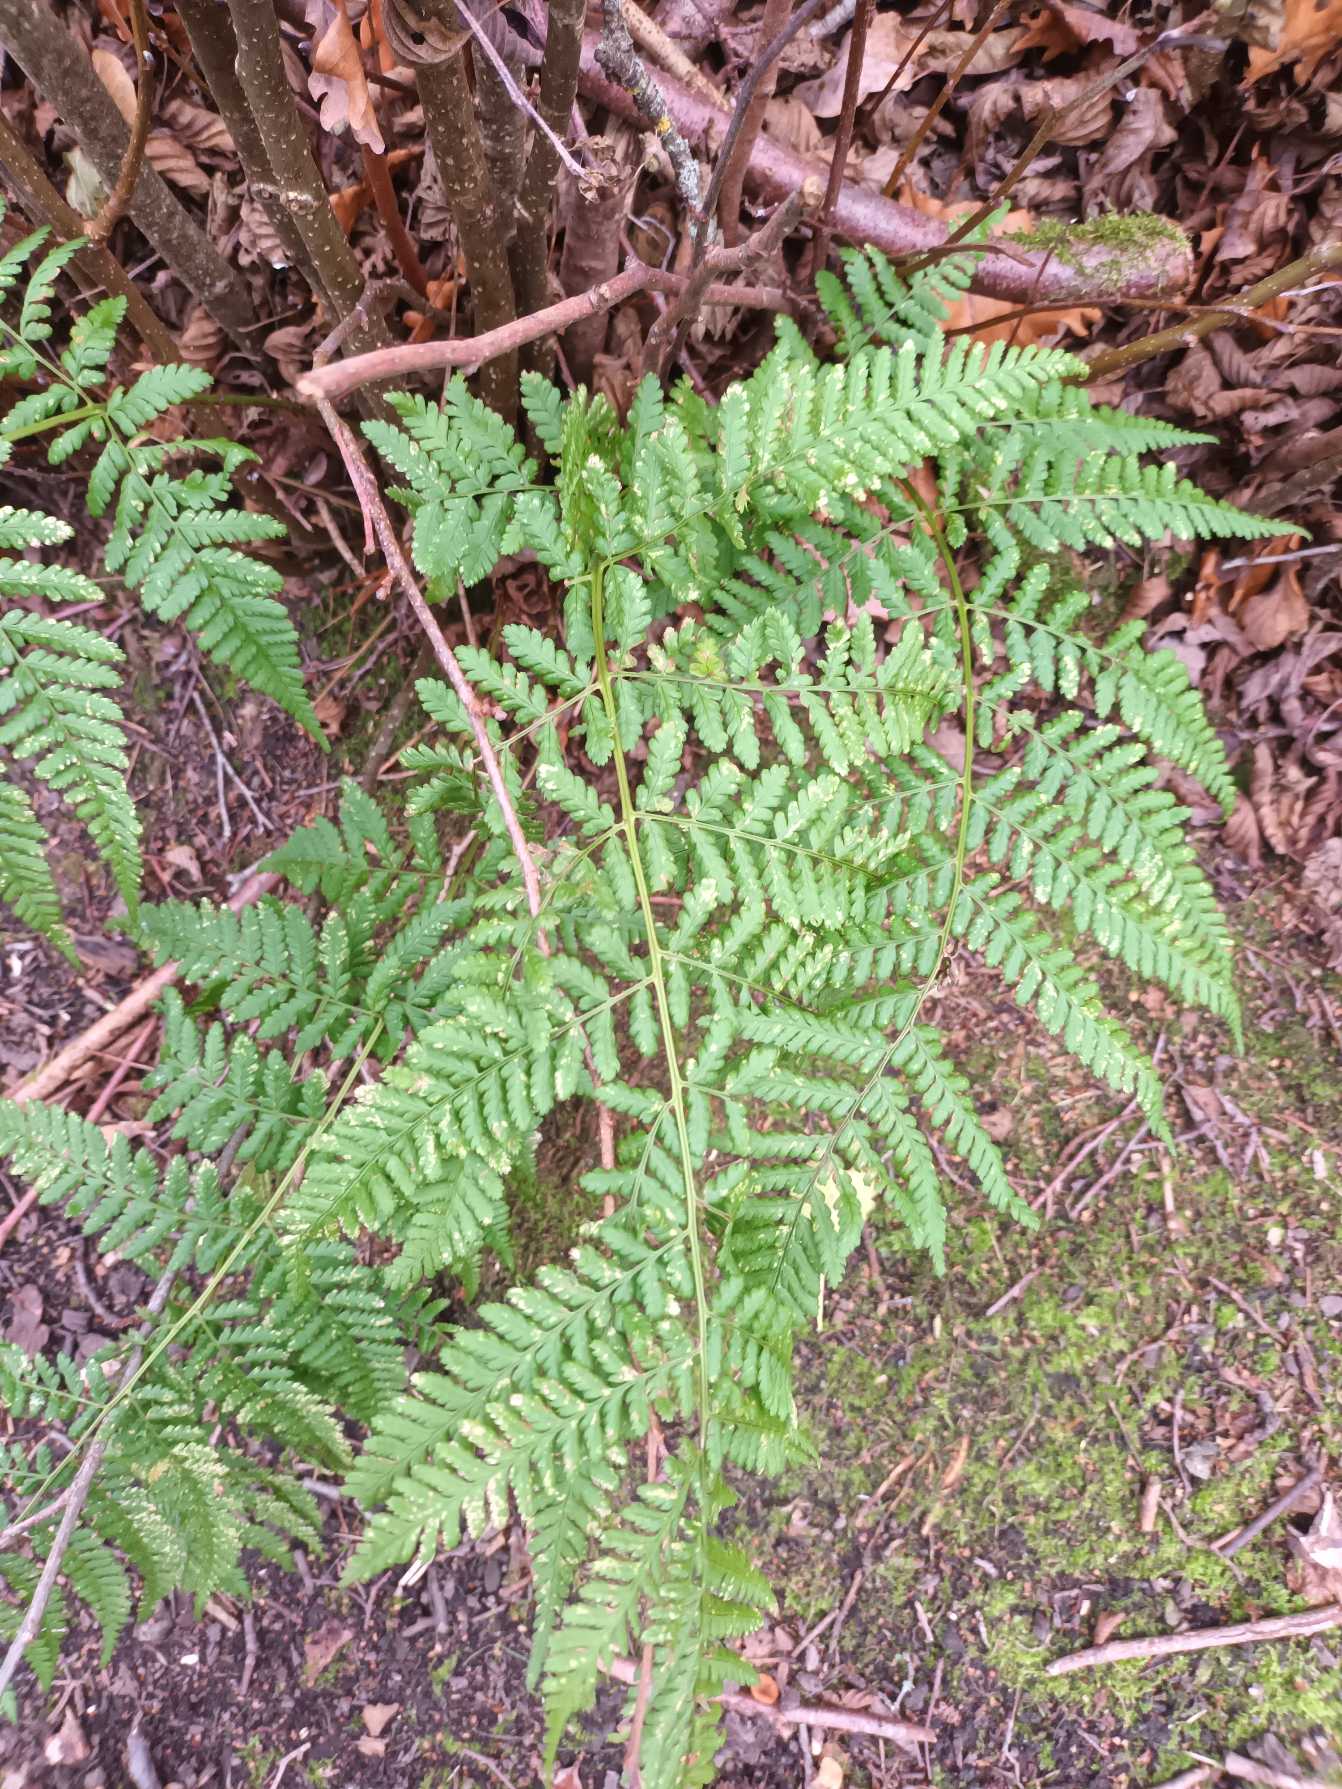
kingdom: Plantae
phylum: Tracheophyta
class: Polypodiopsida
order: Polypodiales
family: Dryopteridaceae
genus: Dryopteris
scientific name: Dryopteris dilatata
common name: Bredbladet mangeløv
